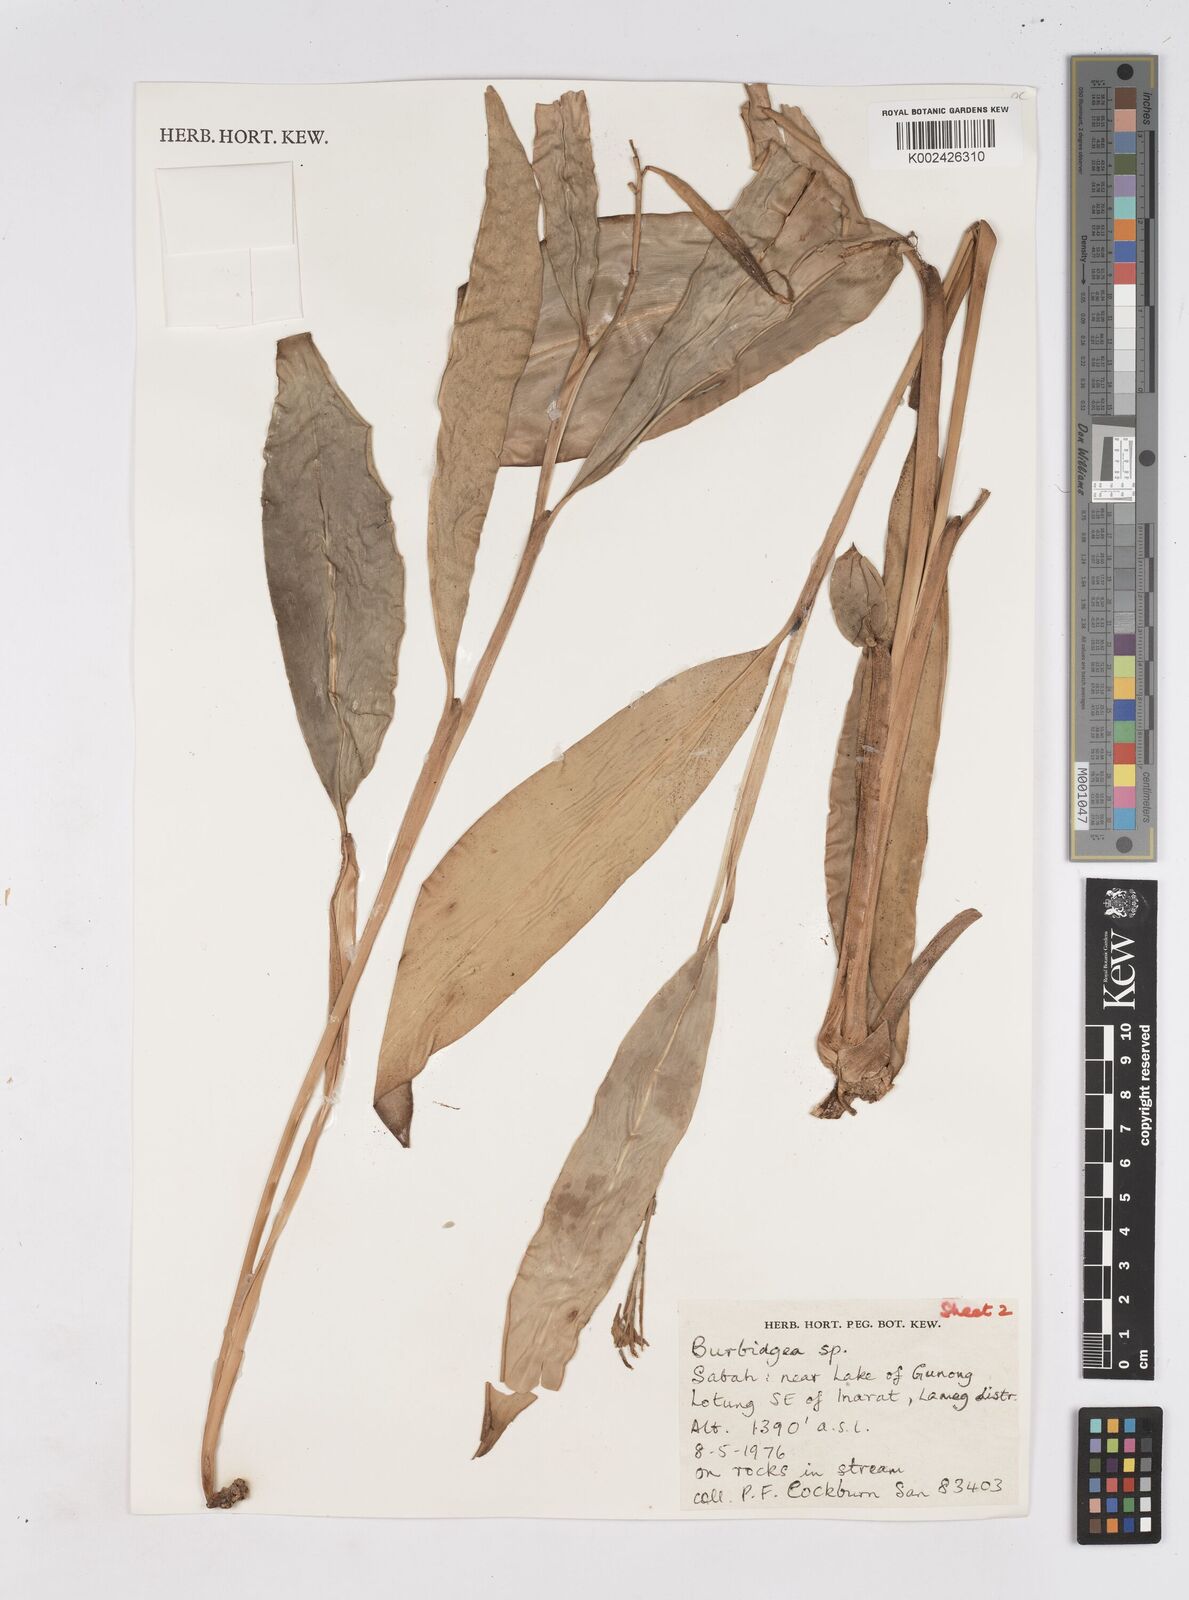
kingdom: Plantae
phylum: Tracheophyta
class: Liliopsida
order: Zingiberales
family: Zingiberaceae
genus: Burbidgea
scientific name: Burbidgea schizocheila
